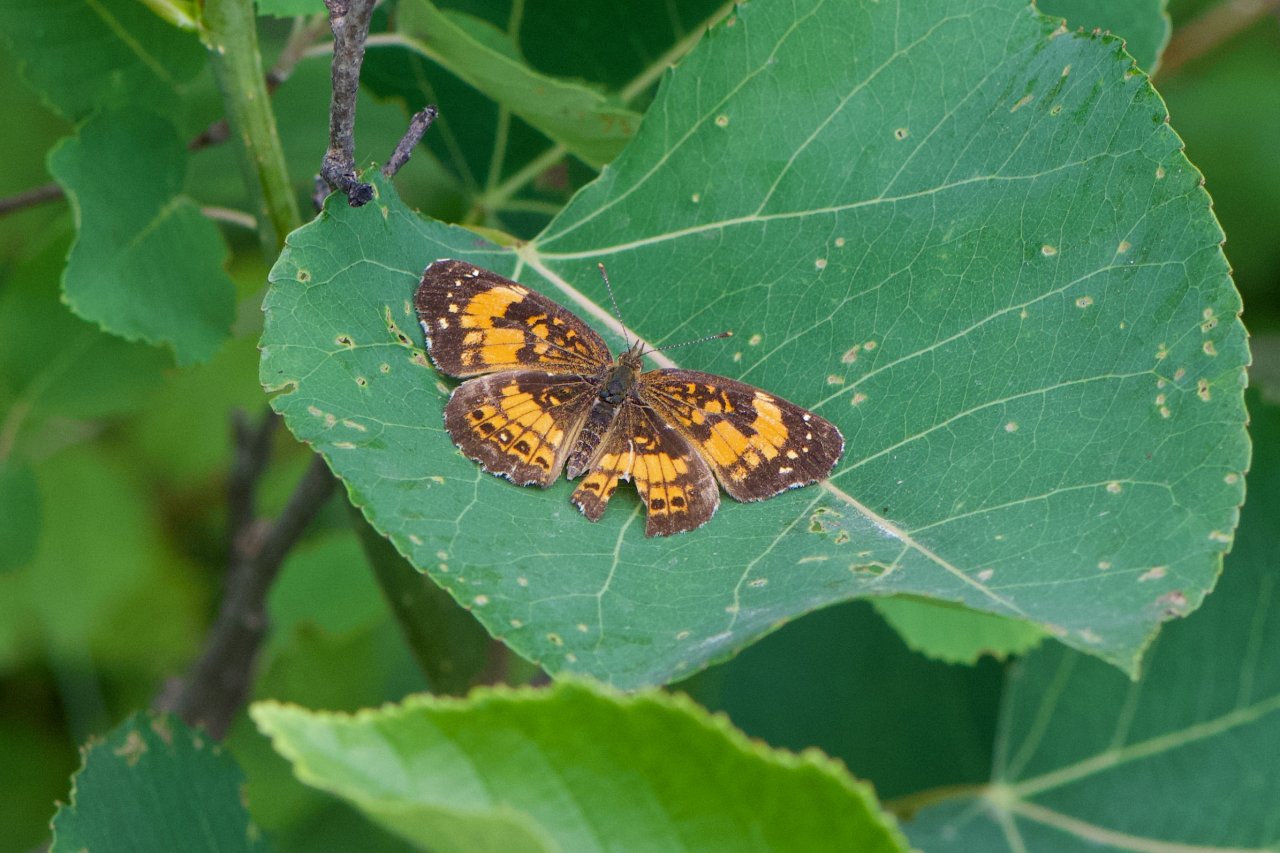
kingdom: Animalia
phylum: Arthropoda
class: Insecta
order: Lepidoptera
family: Nymphalidae
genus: Chlosyne
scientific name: Chlosyne nycteis
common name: Silvery Checkerspot
